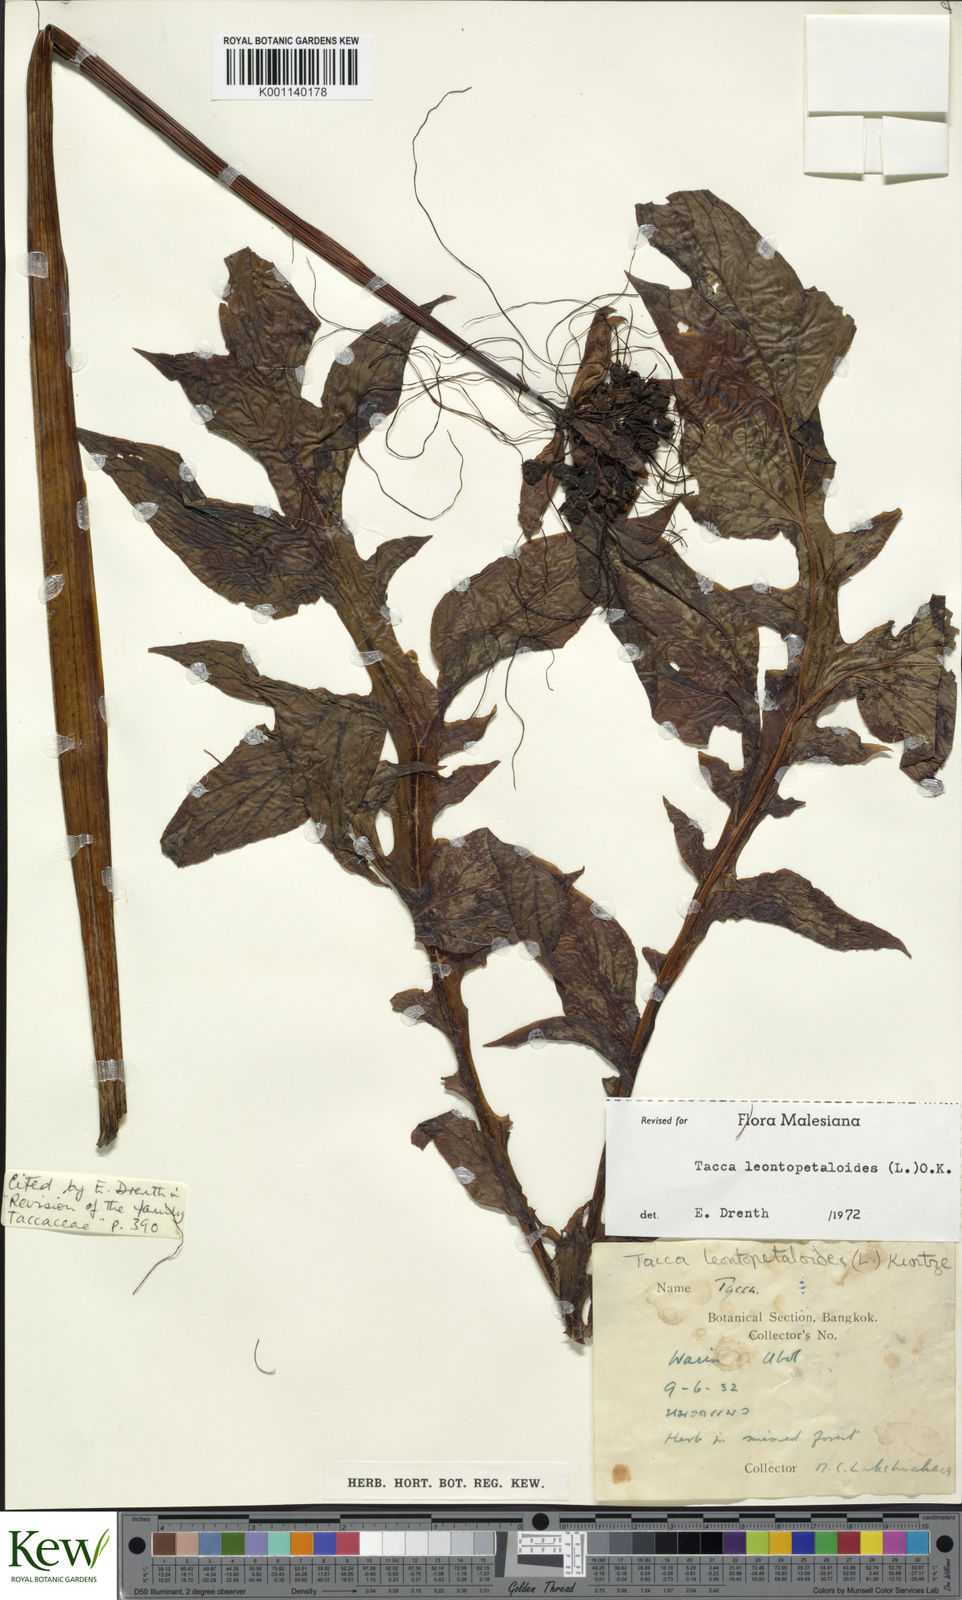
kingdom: Plantae
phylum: Tracheophyta
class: Liliopsida
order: Dioscoreales
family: Dioscoreaceae
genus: Tacca
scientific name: Tacca leontopetaloides
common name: Arrowroot
